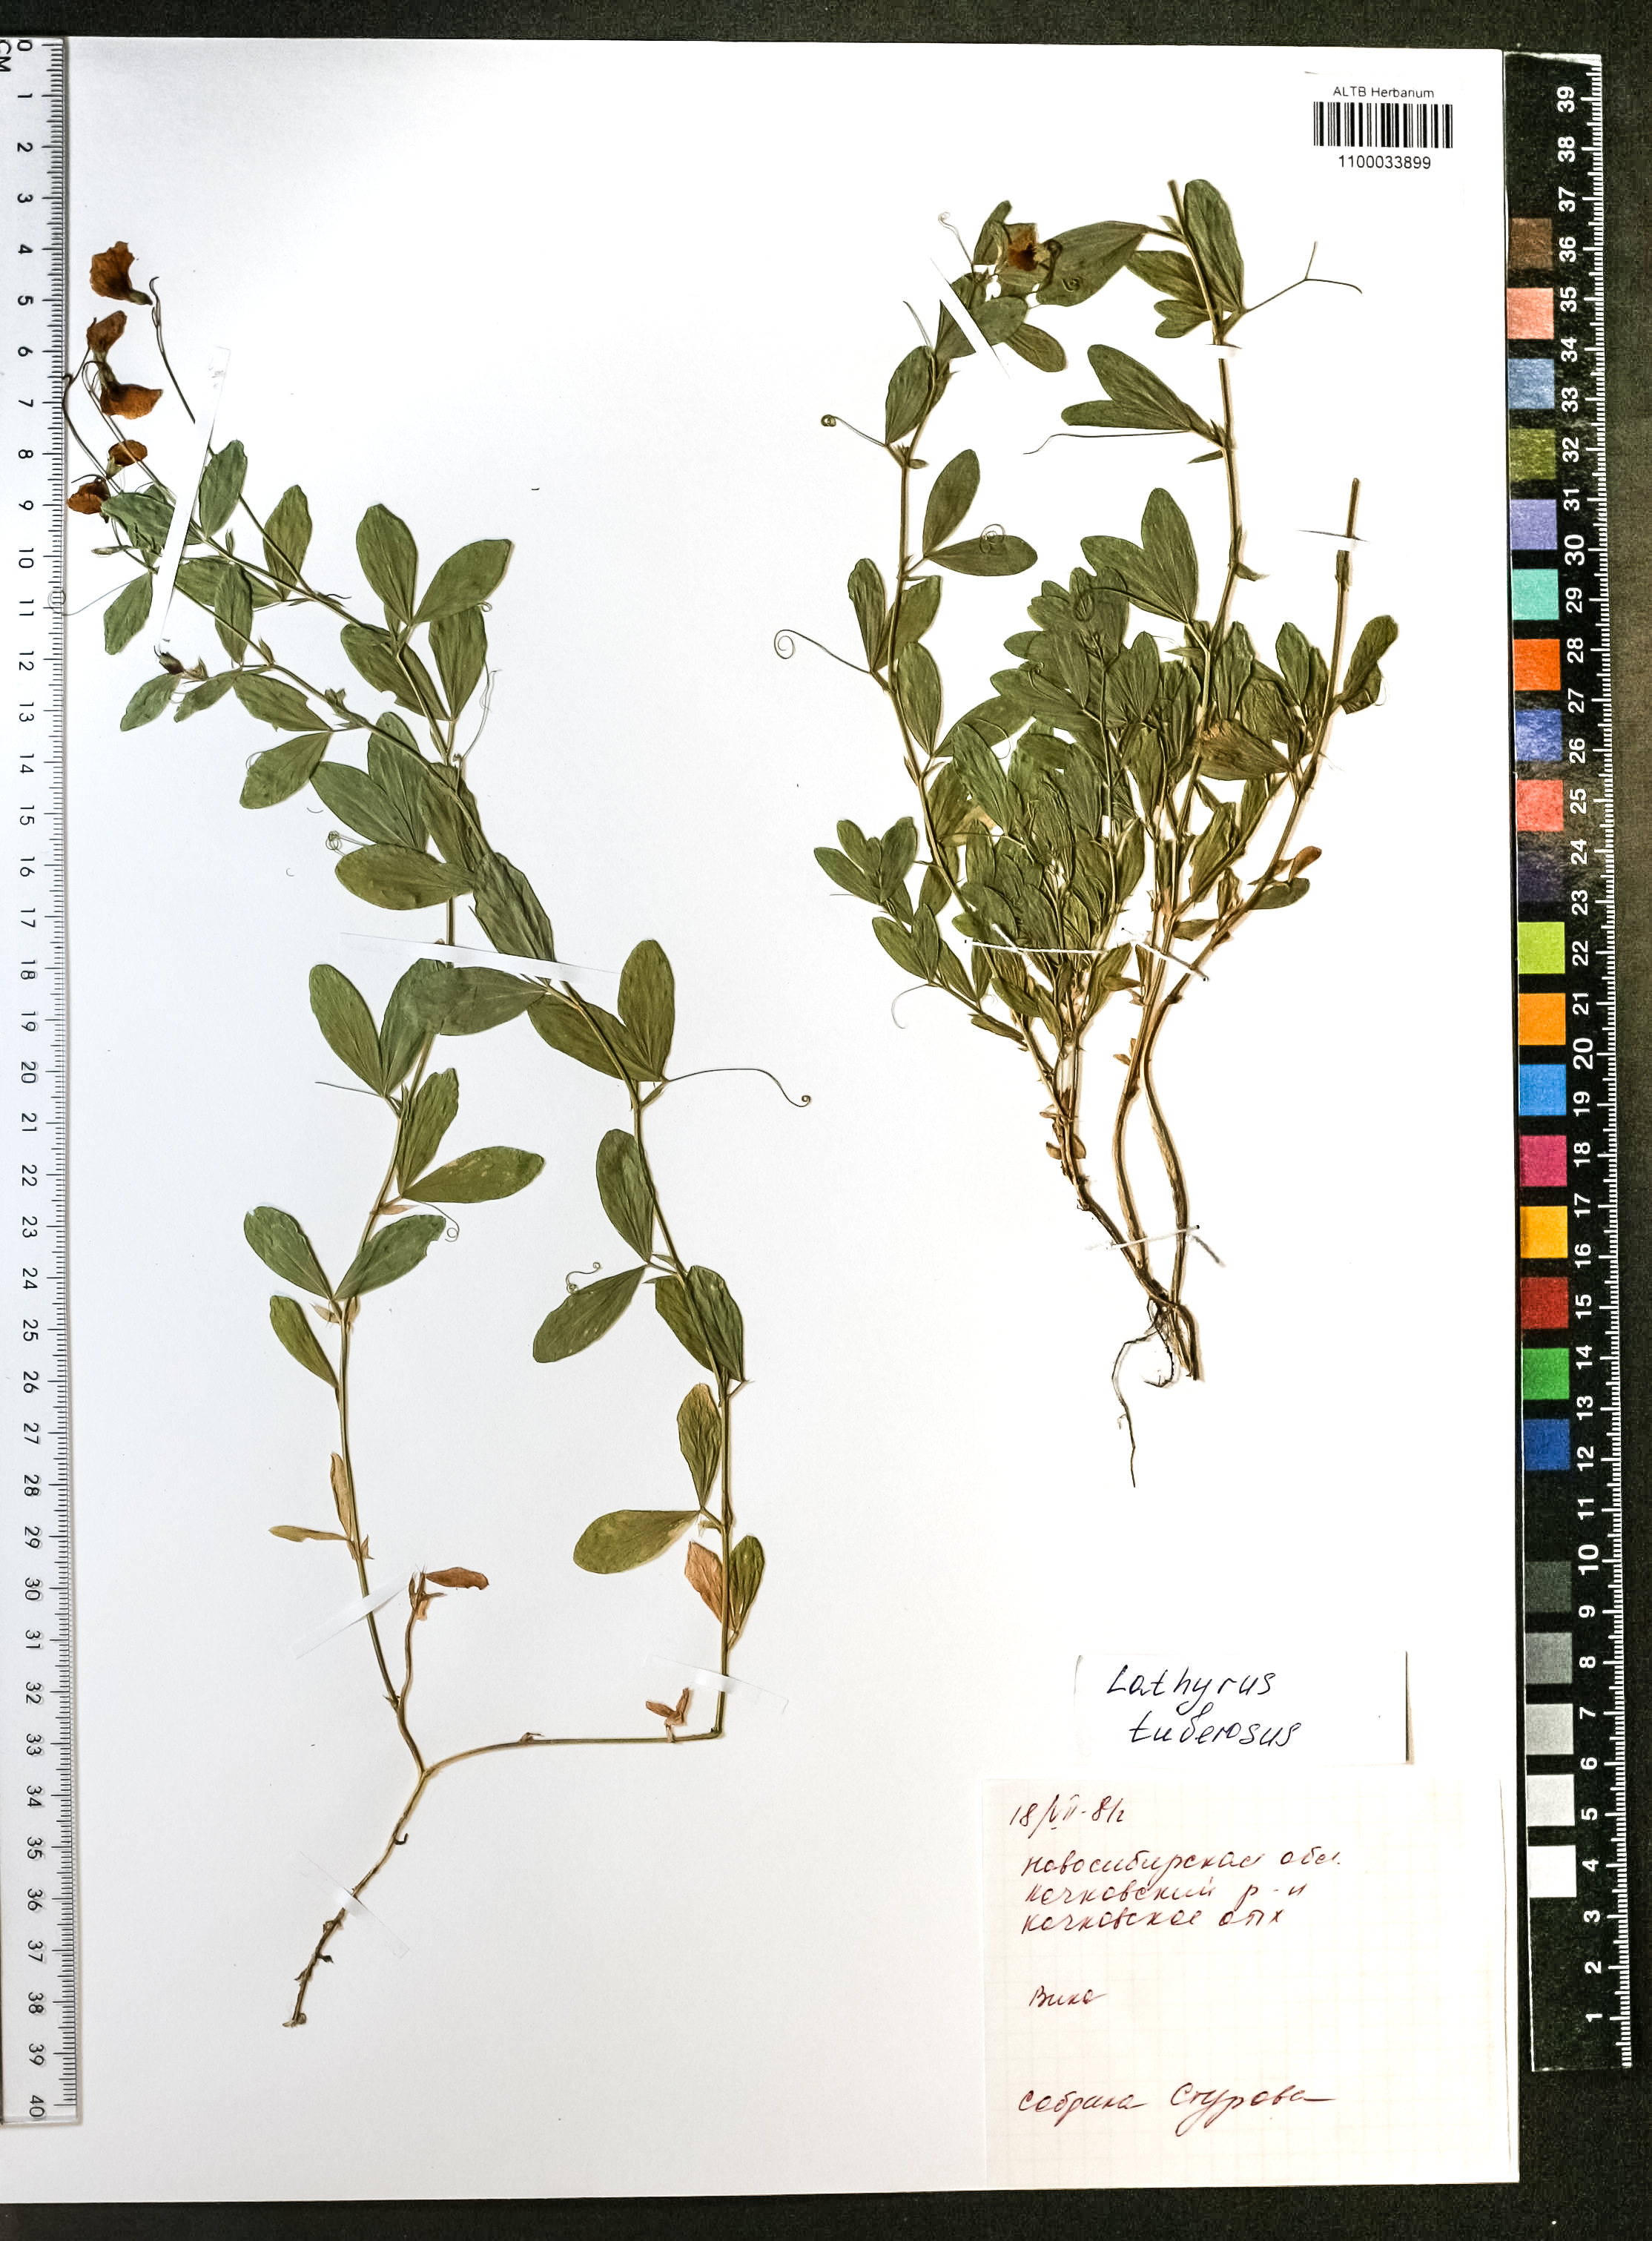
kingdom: Plantae
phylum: Tracheophyta
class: Magnoliopsida
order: Fabales
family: Fabaceae
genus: Lathyrus
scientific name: Lathyrus tuberosus
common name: Tuberous pea
